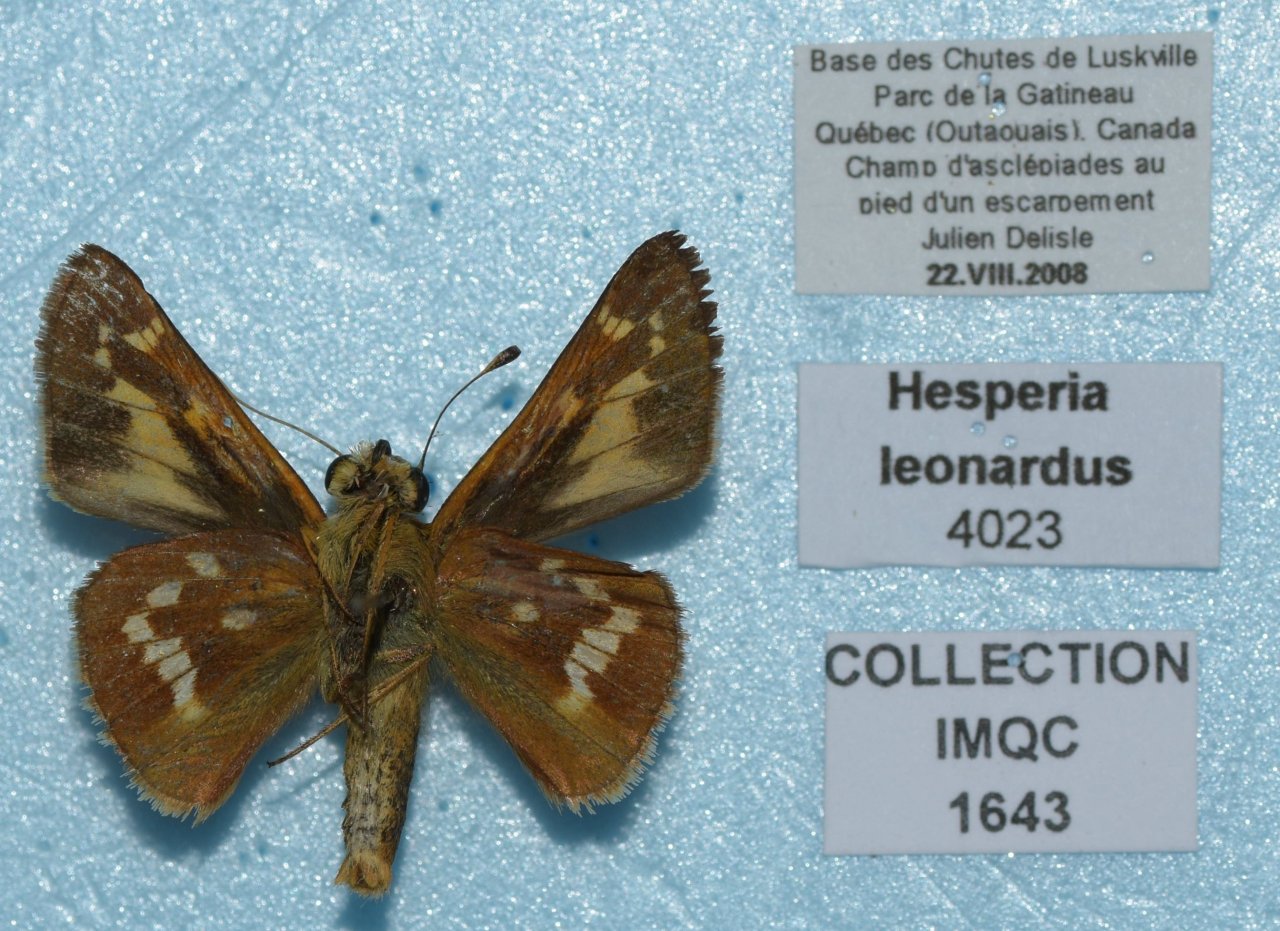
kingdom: Animalia
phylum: Arthropoda
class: Insecta
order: Lepidoptera
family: Hesperiidae
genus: Hesperia
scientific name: Hesperia leonardus
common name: Leonard's Skipper
